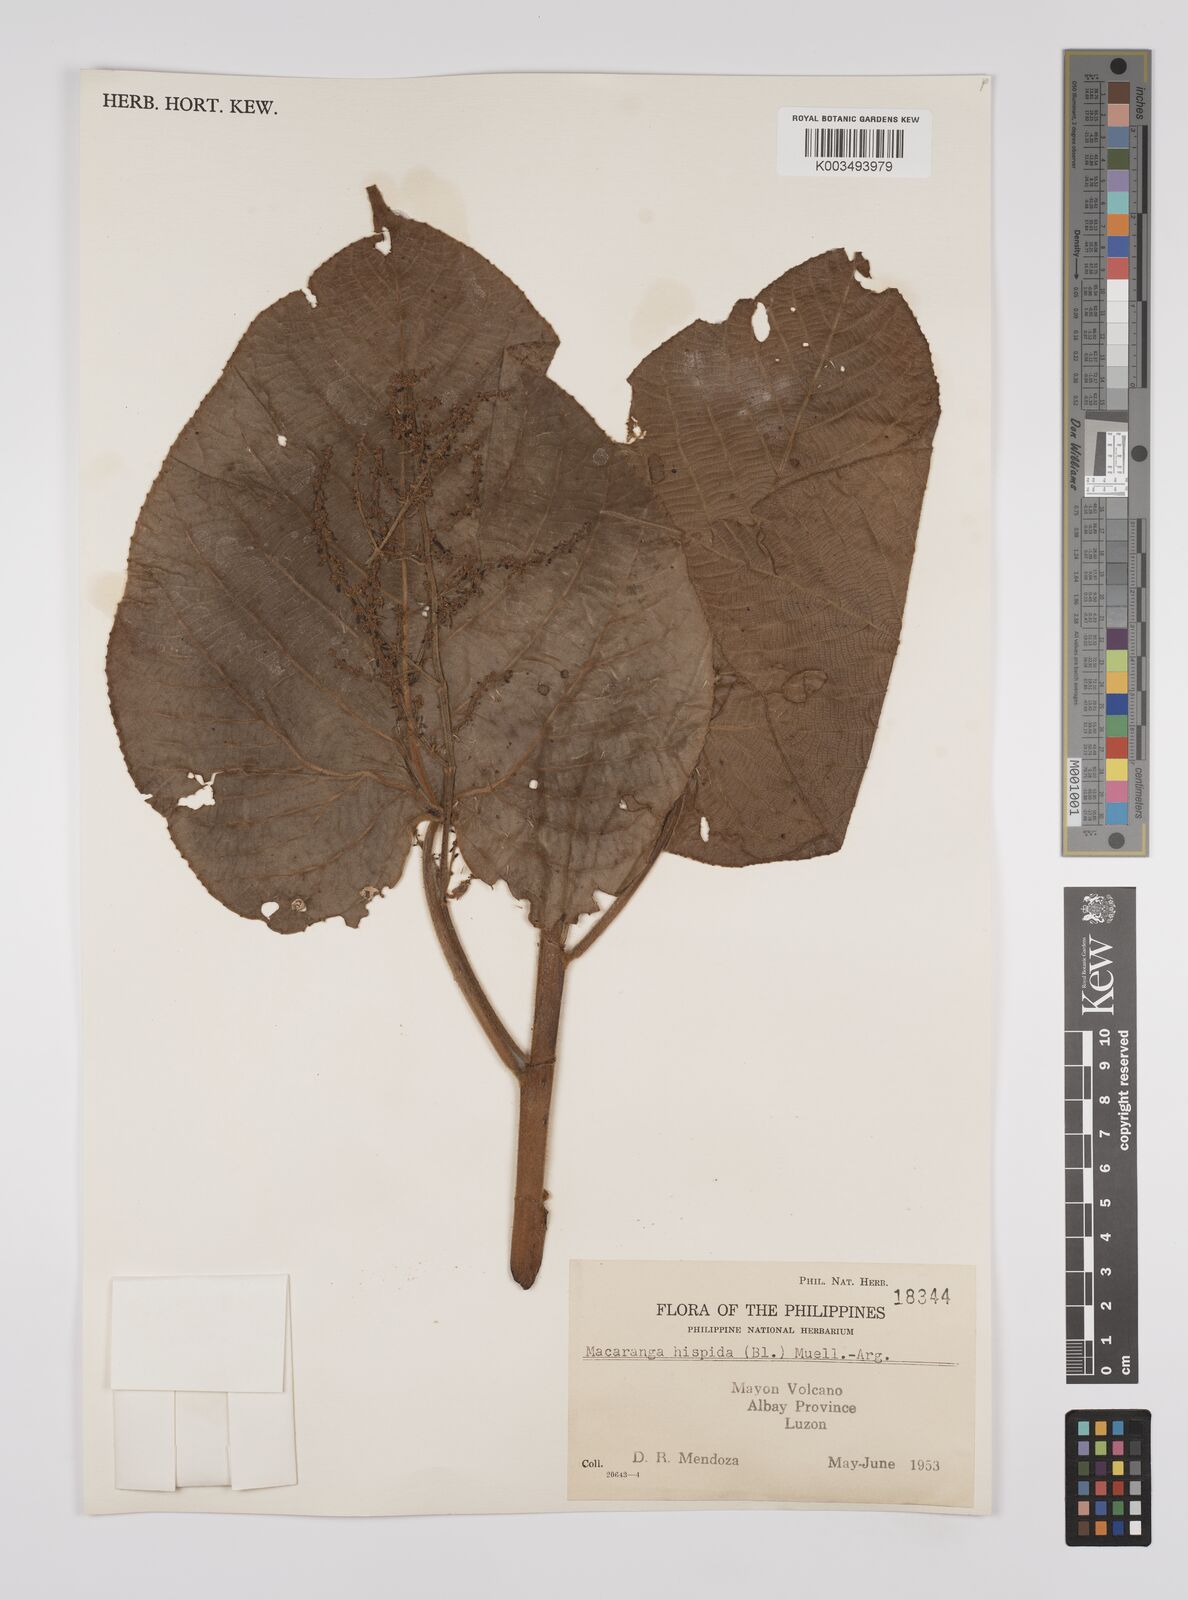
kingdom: Plantae
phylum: Tracheophyta
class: Magnoliopsida
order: Malpighiales
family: Euphorbiaceae
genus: Macaranga
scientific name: Macaranga hispida
